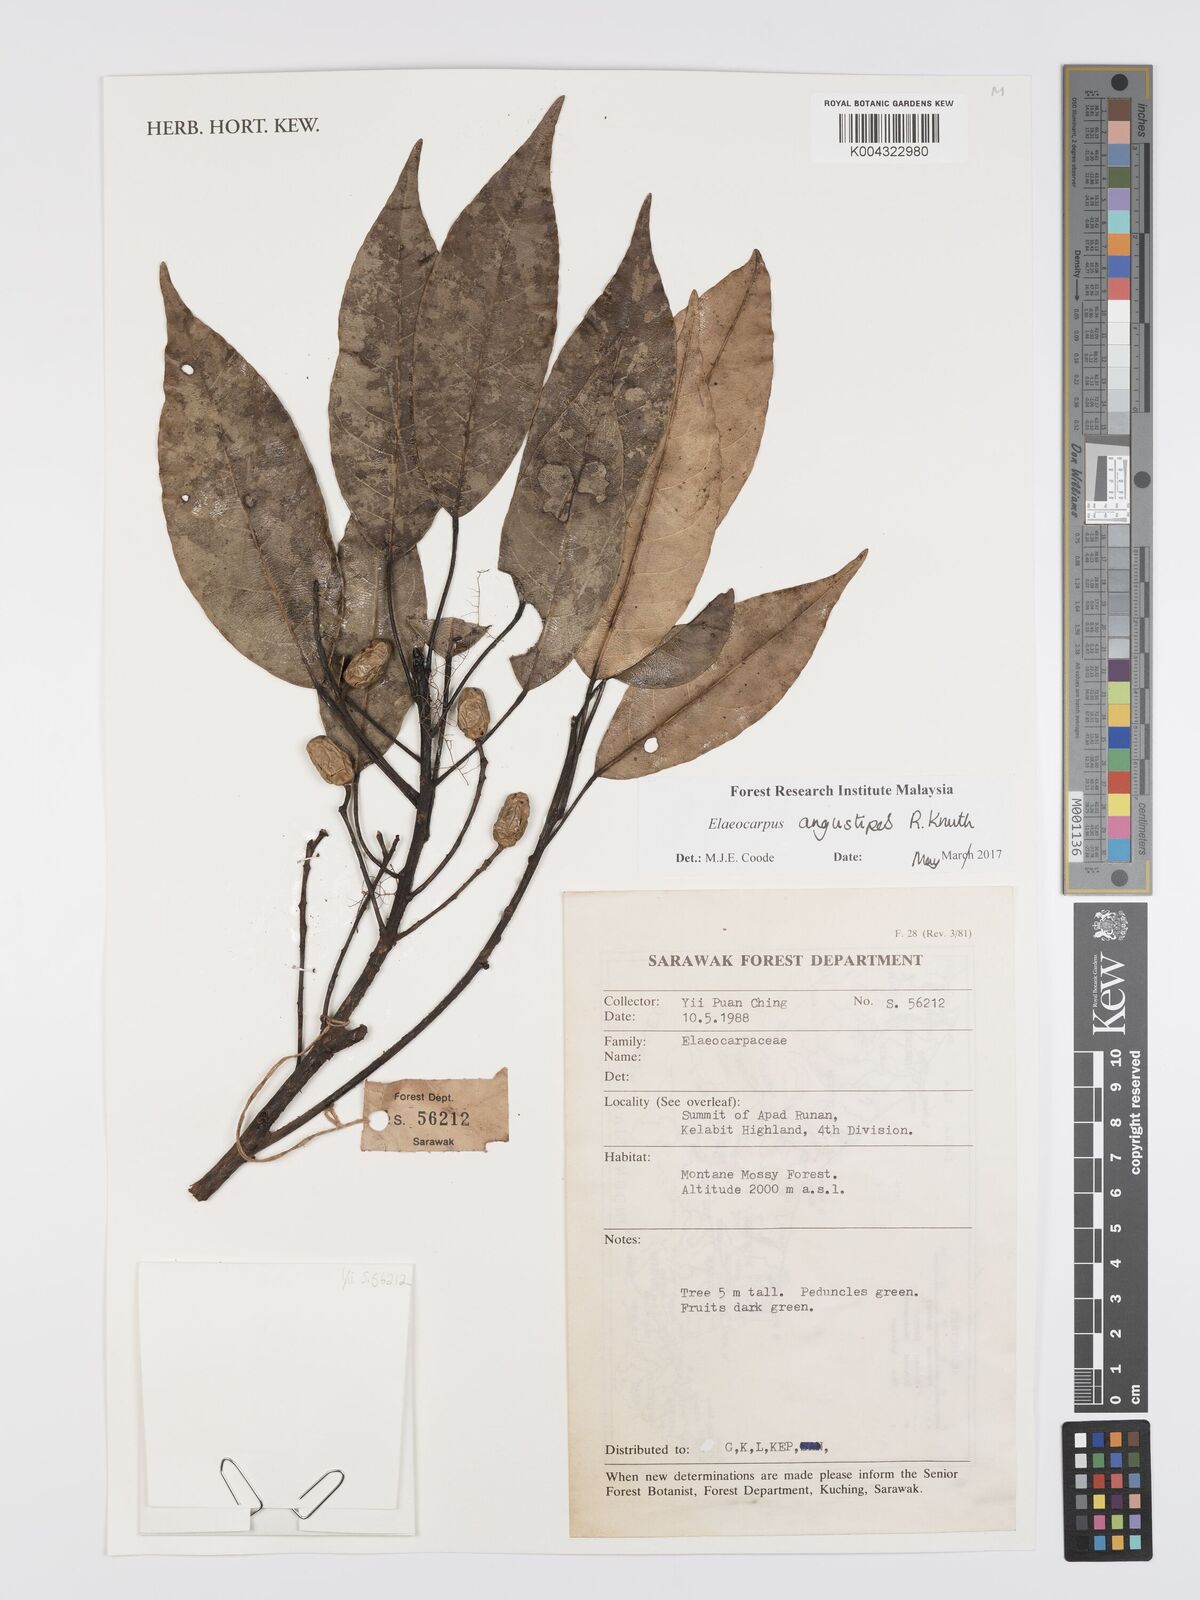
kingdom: Plantae
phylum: Tracheophyta
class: Magnoliopsida
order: Oxalidales
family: Elaeocarpaceae
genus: Elaeocarpus
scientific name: Elaeocarpus angustipes
